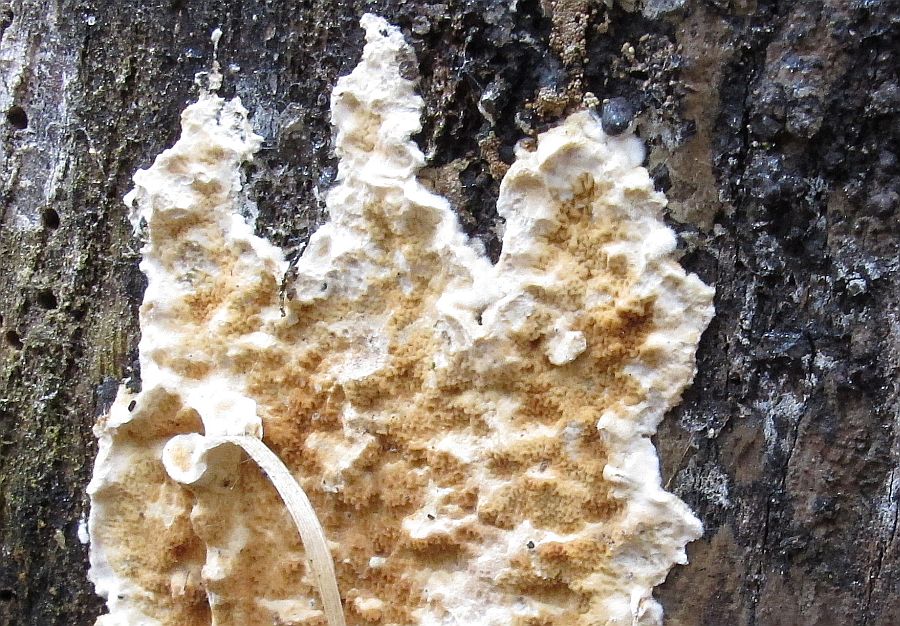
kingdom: Fungi
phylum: Basidiomycota
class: Agaricomycetes
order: Polyporales
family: Irpicaceae
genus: Byssomerulius
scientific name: Byssomerulius corium
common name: læder-åresvamp
